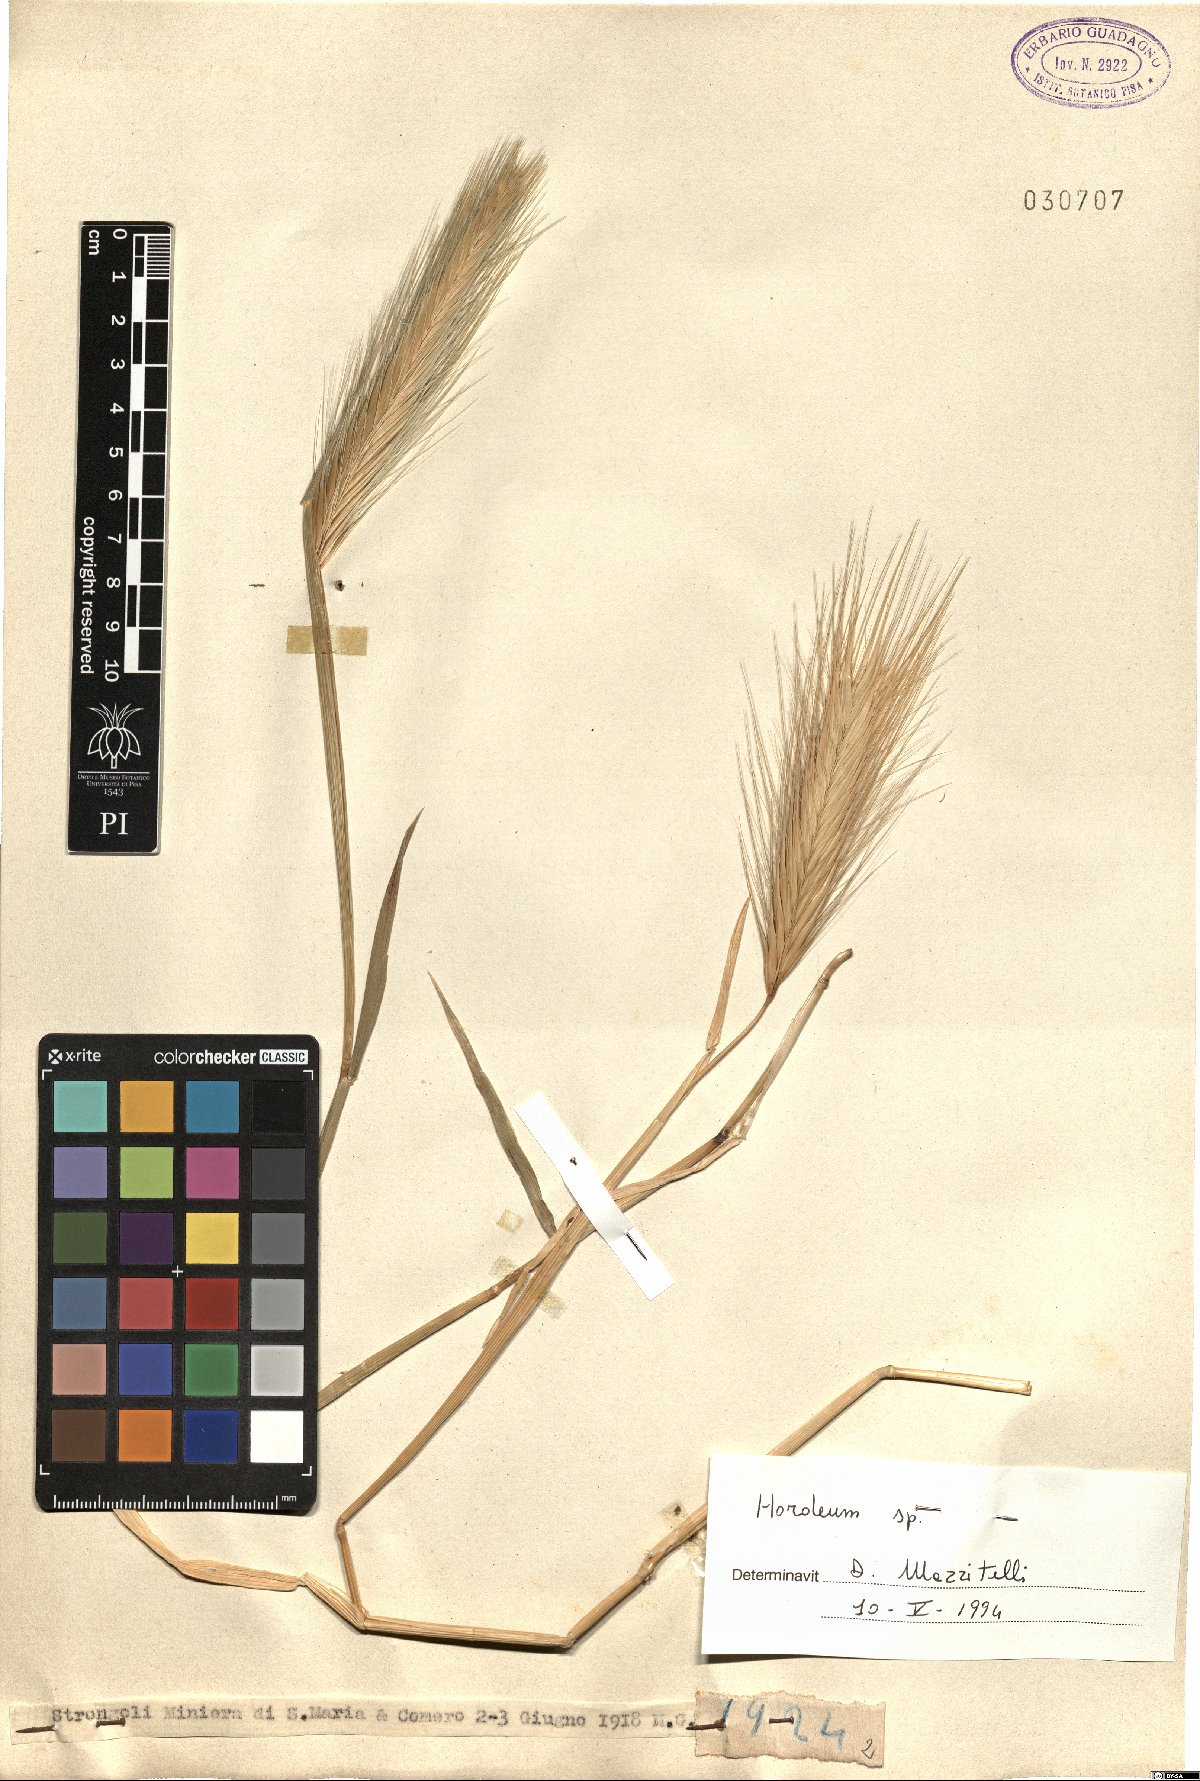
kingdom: Plantae
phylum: Tracheophyta
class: Liliopsida
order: Poales
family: Poaceae
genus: Hordeum
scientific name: Hordeum
